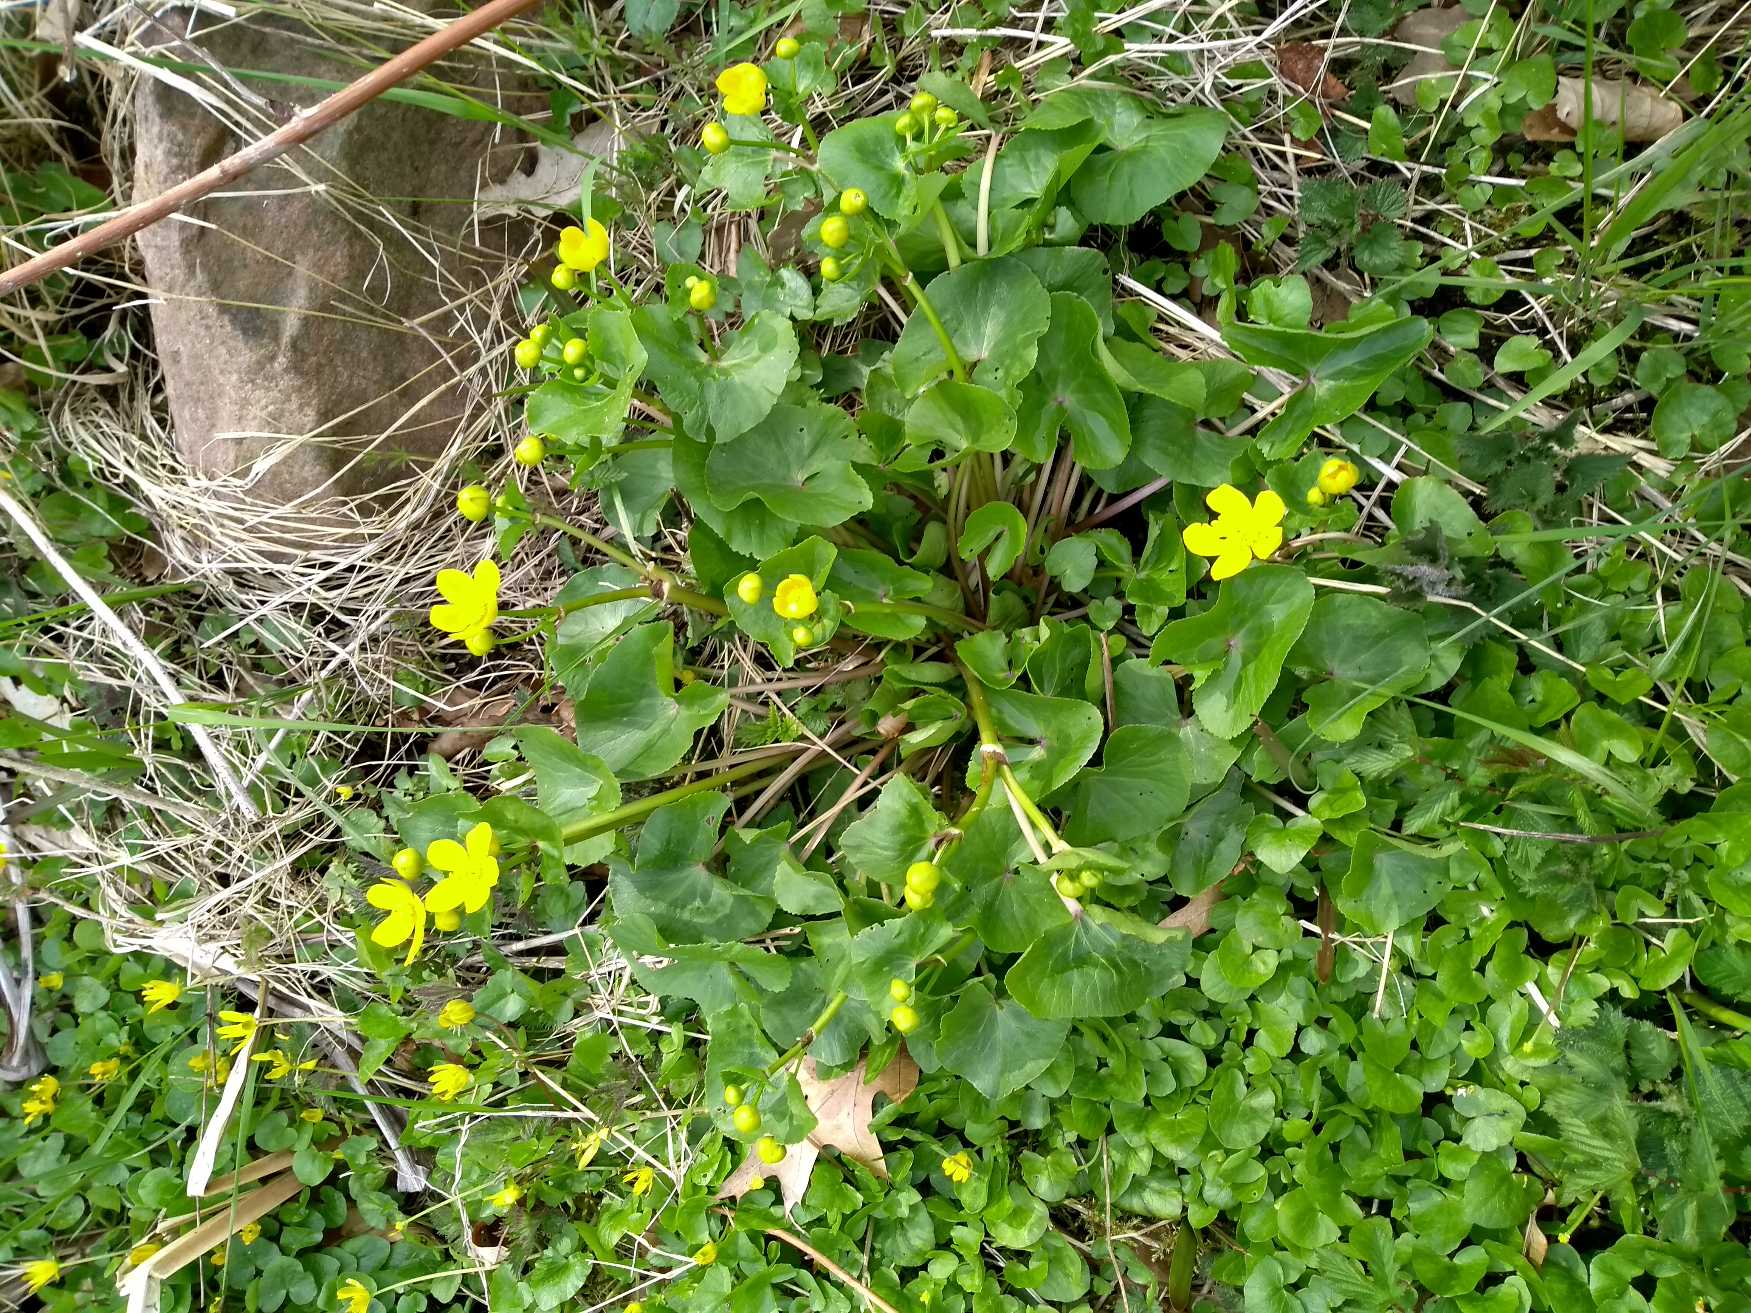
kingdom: Plantae
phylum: Tracheophyta
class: Magnoliopsida
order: Ranunculales
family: Ranunculaceae
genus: Caltha
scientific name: Caltha palustris
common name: Eng-kabbeleje
